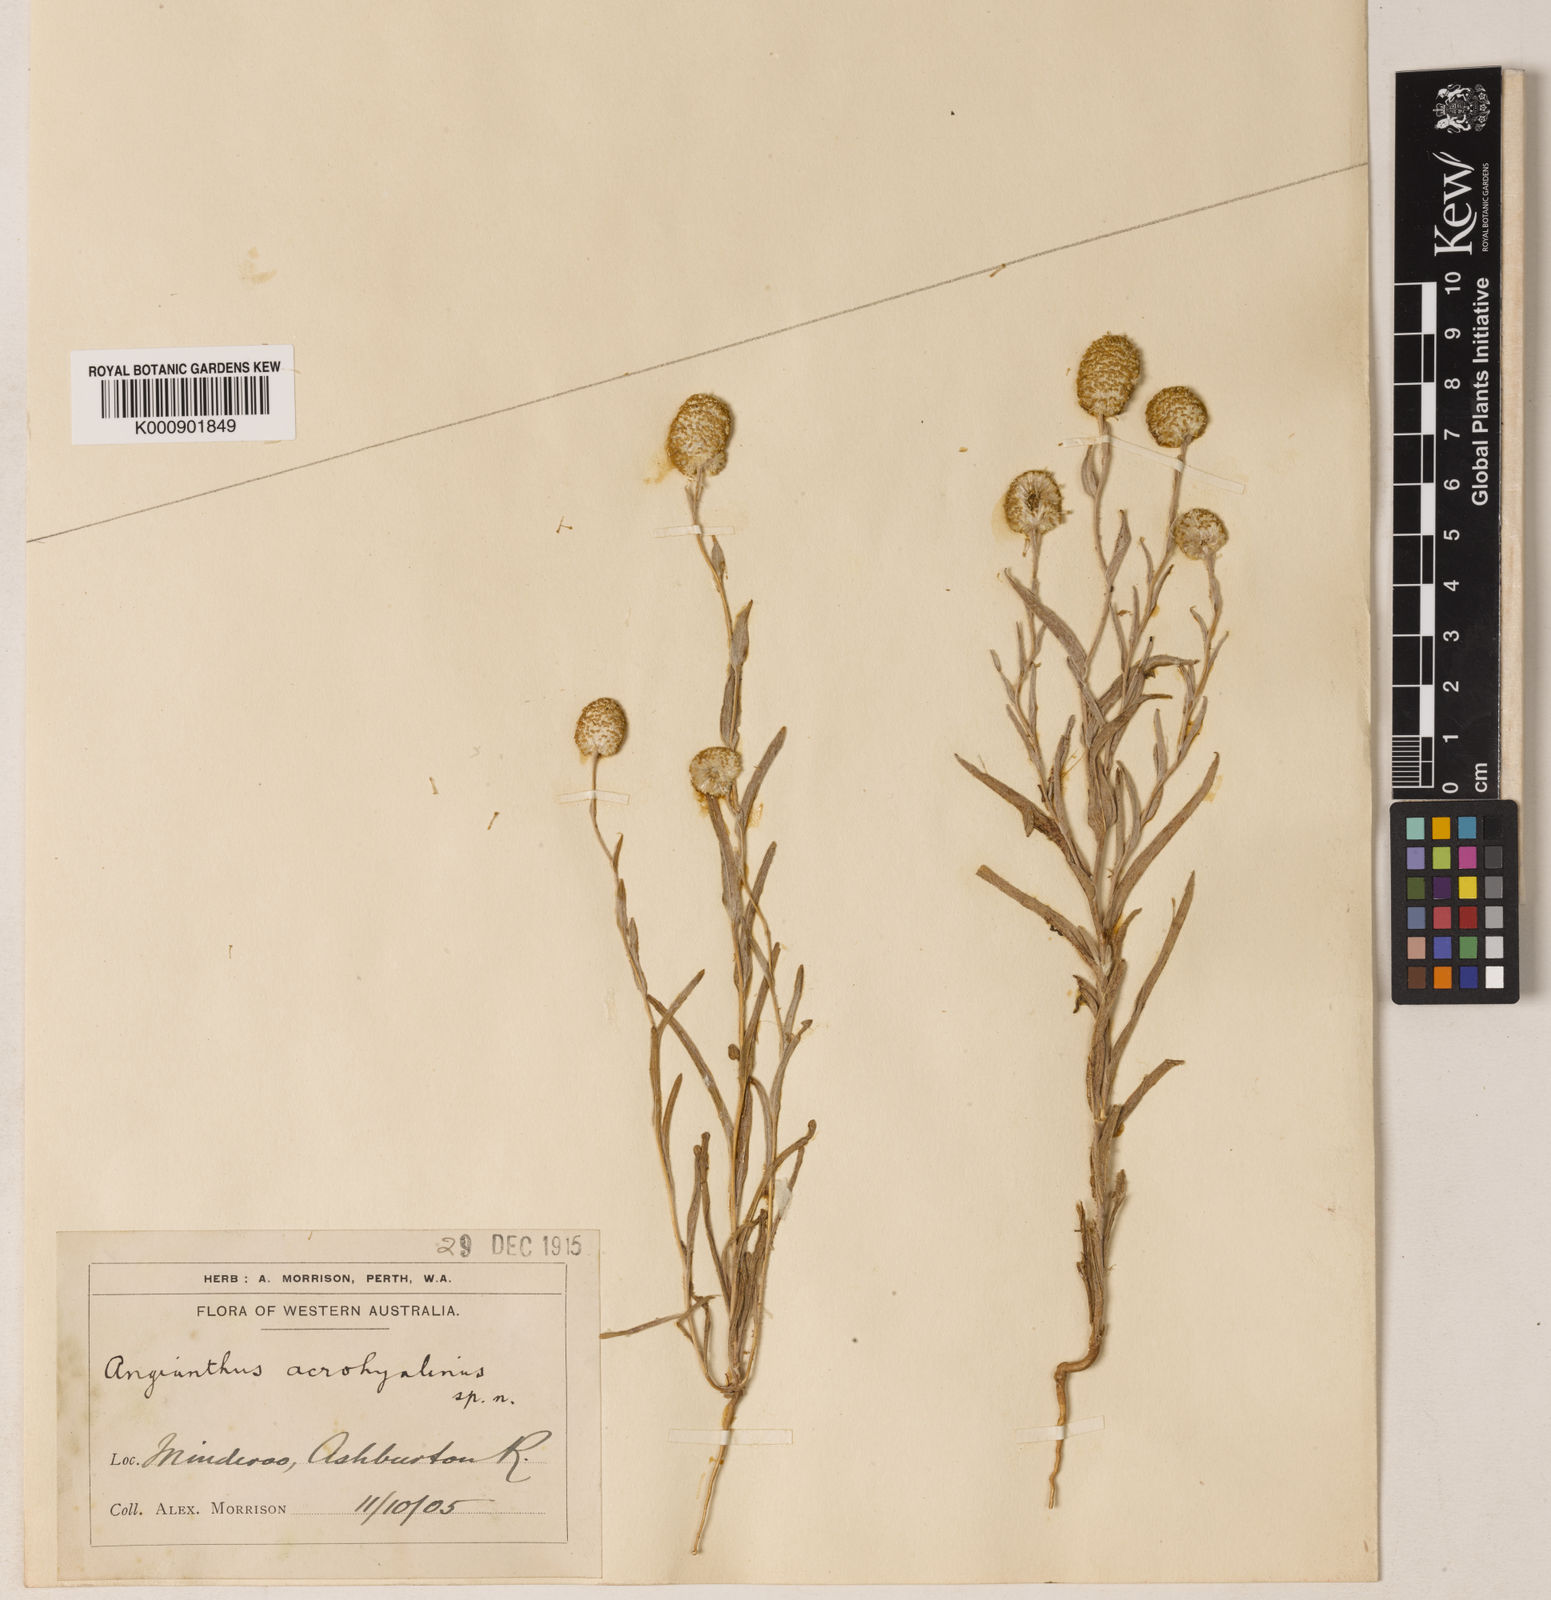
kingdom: Plantae
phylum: Tracheophyta
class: Magnoliopsida
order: Asterales
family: Asteraceae
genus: Angianthus
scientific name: Angianthus acrohyalinus
